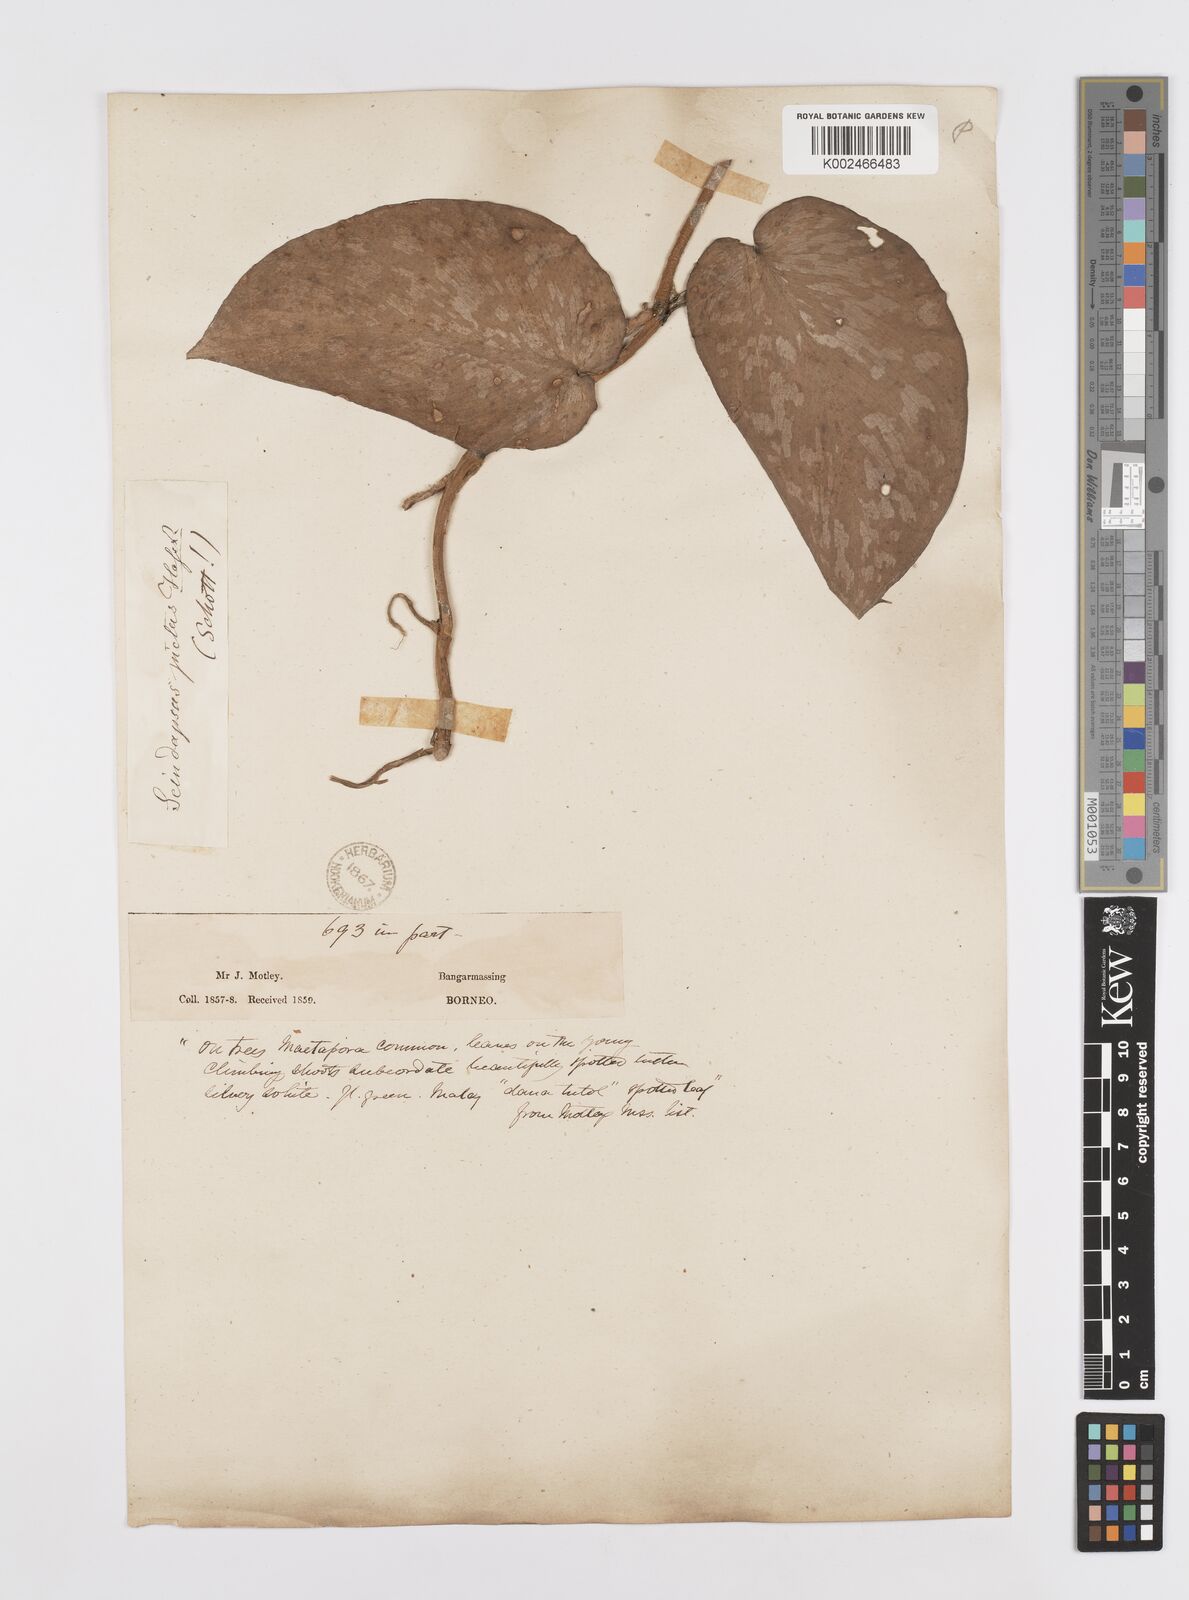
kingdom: Plantae
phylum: Tracheophyta
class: Liliopsida
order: Alismatales
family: Araceae
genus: Scindapsus
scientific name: Scindapsus pictus
